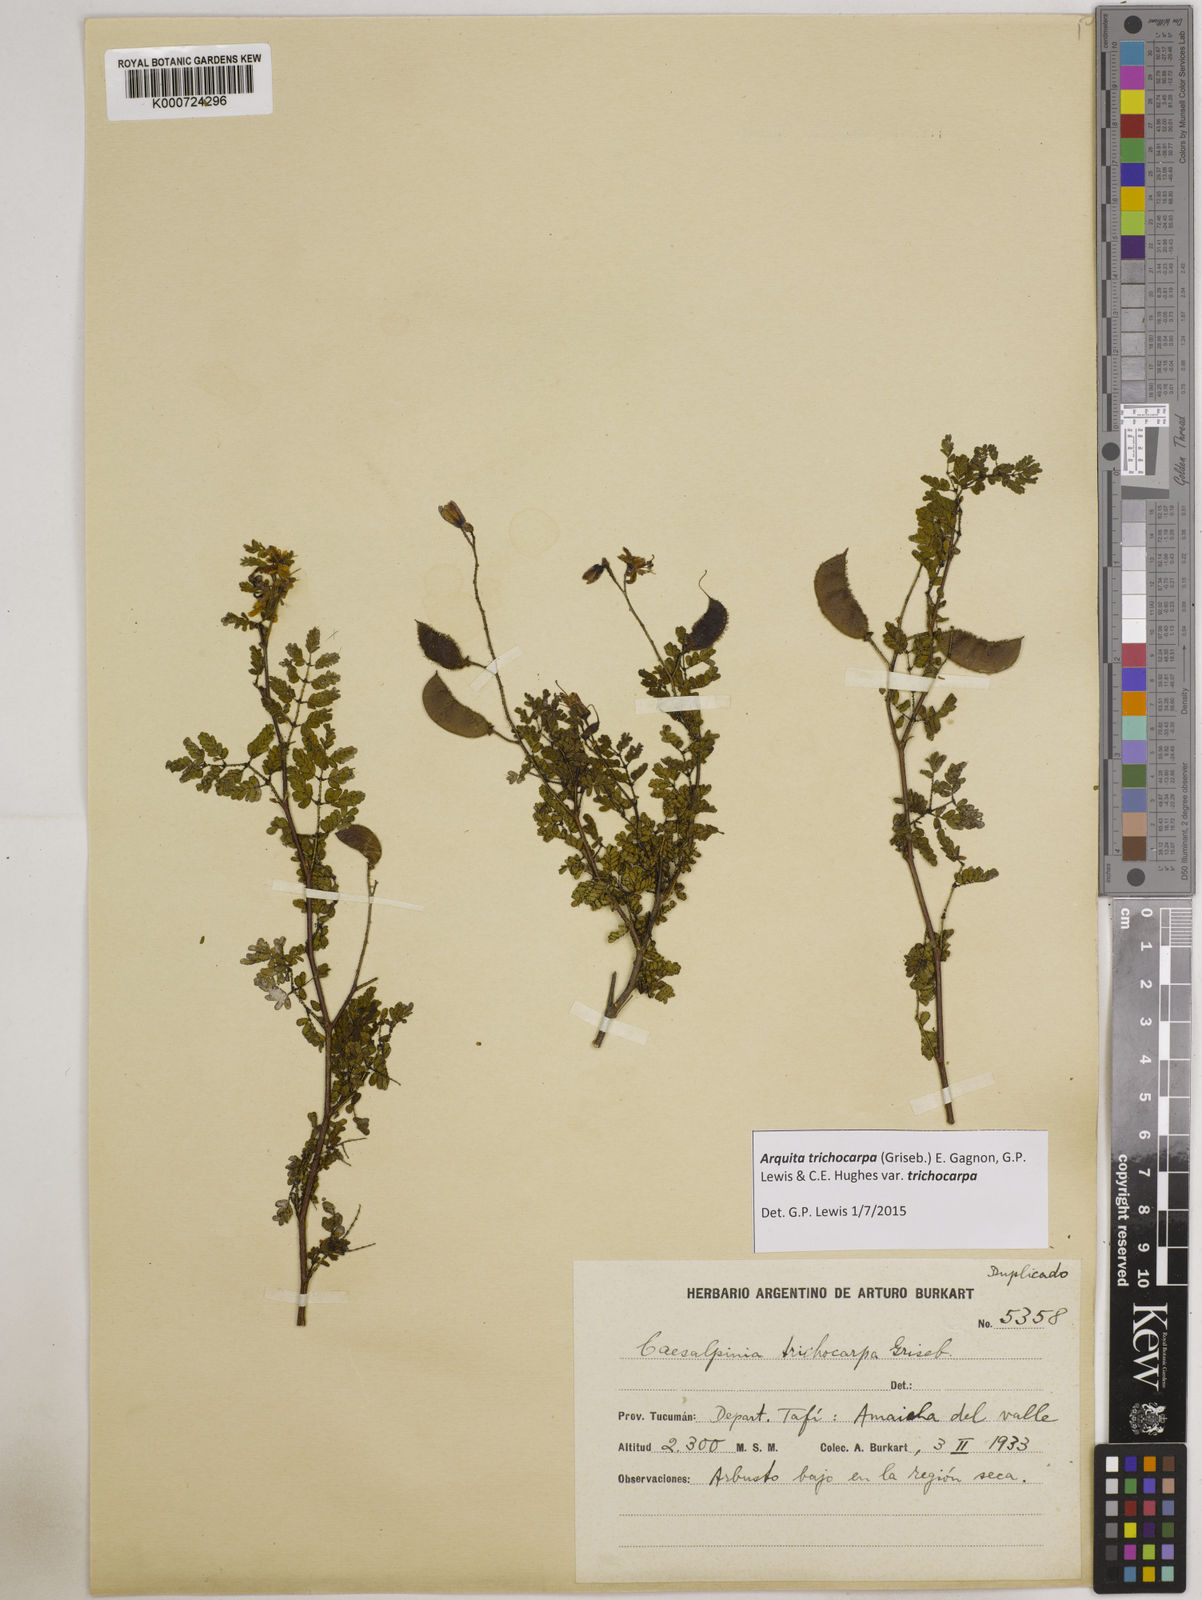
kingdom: Plantae
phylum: Tracheophyta
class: Magnoliopsida
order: Fabales
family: Fabaceae
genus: Arquita
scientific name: Arquita trichocarpa
